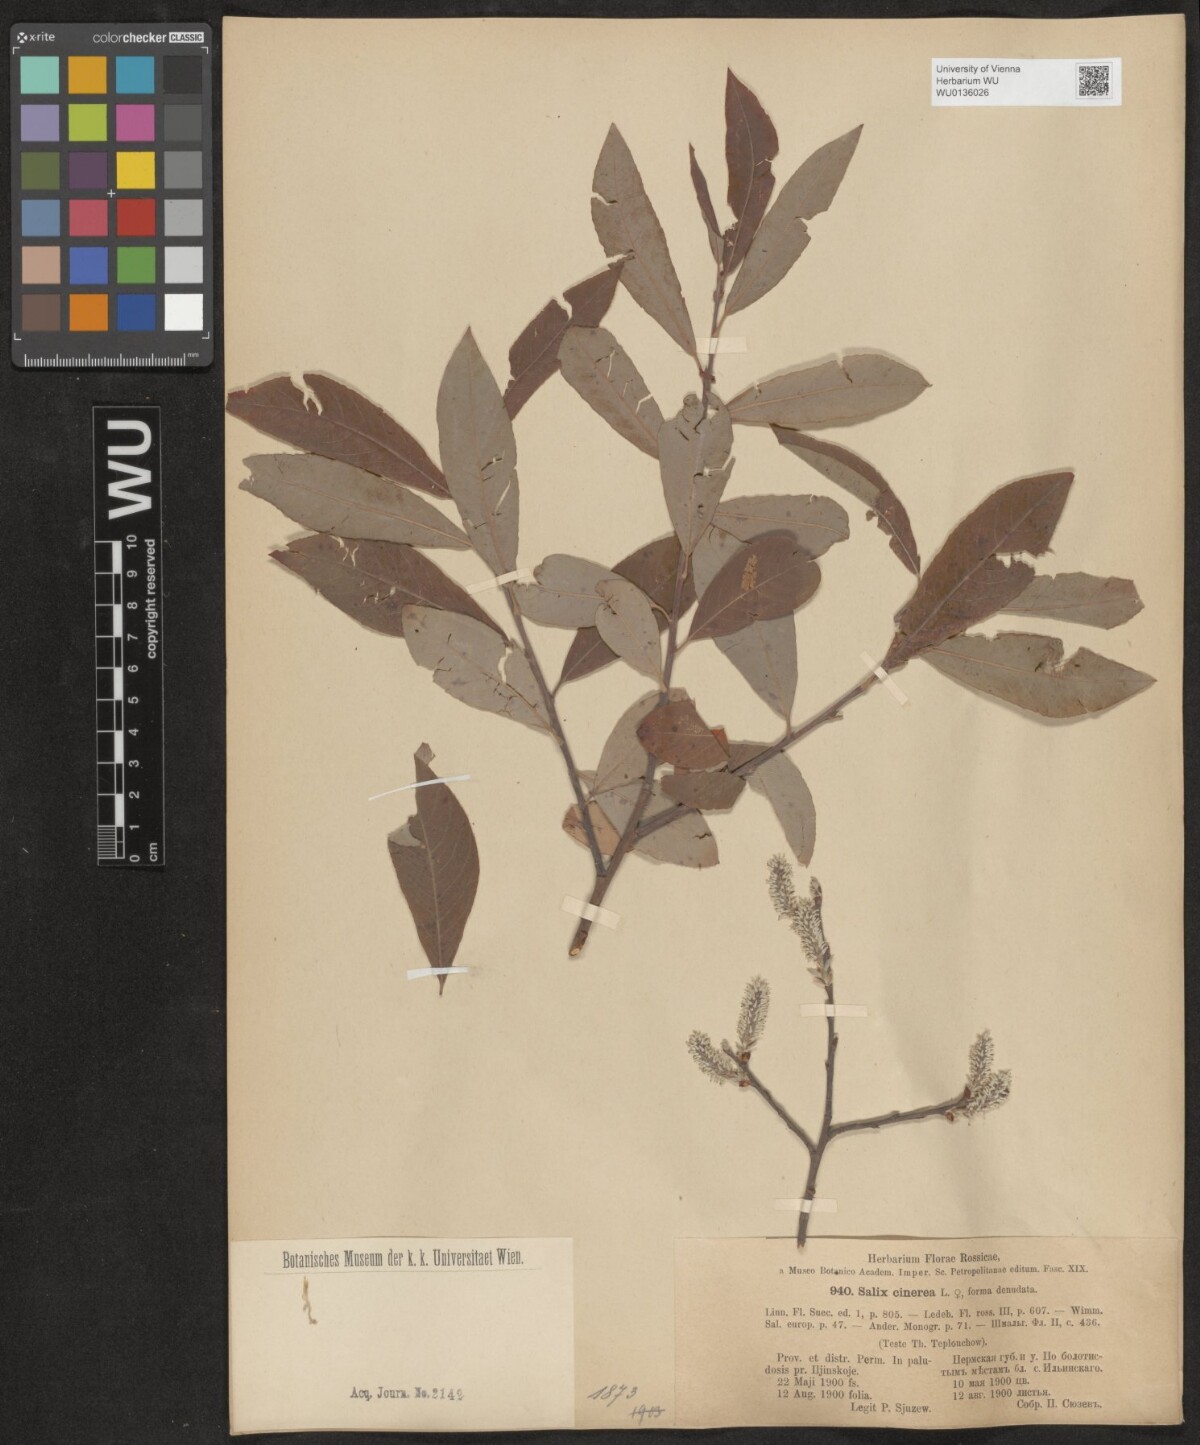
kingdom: Plantae
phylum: Tracheophyta
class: Magnoliopsida
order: Malpighiales
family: Salicaceae
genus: Salix
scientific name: Salix cinerea
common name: Common sallow
